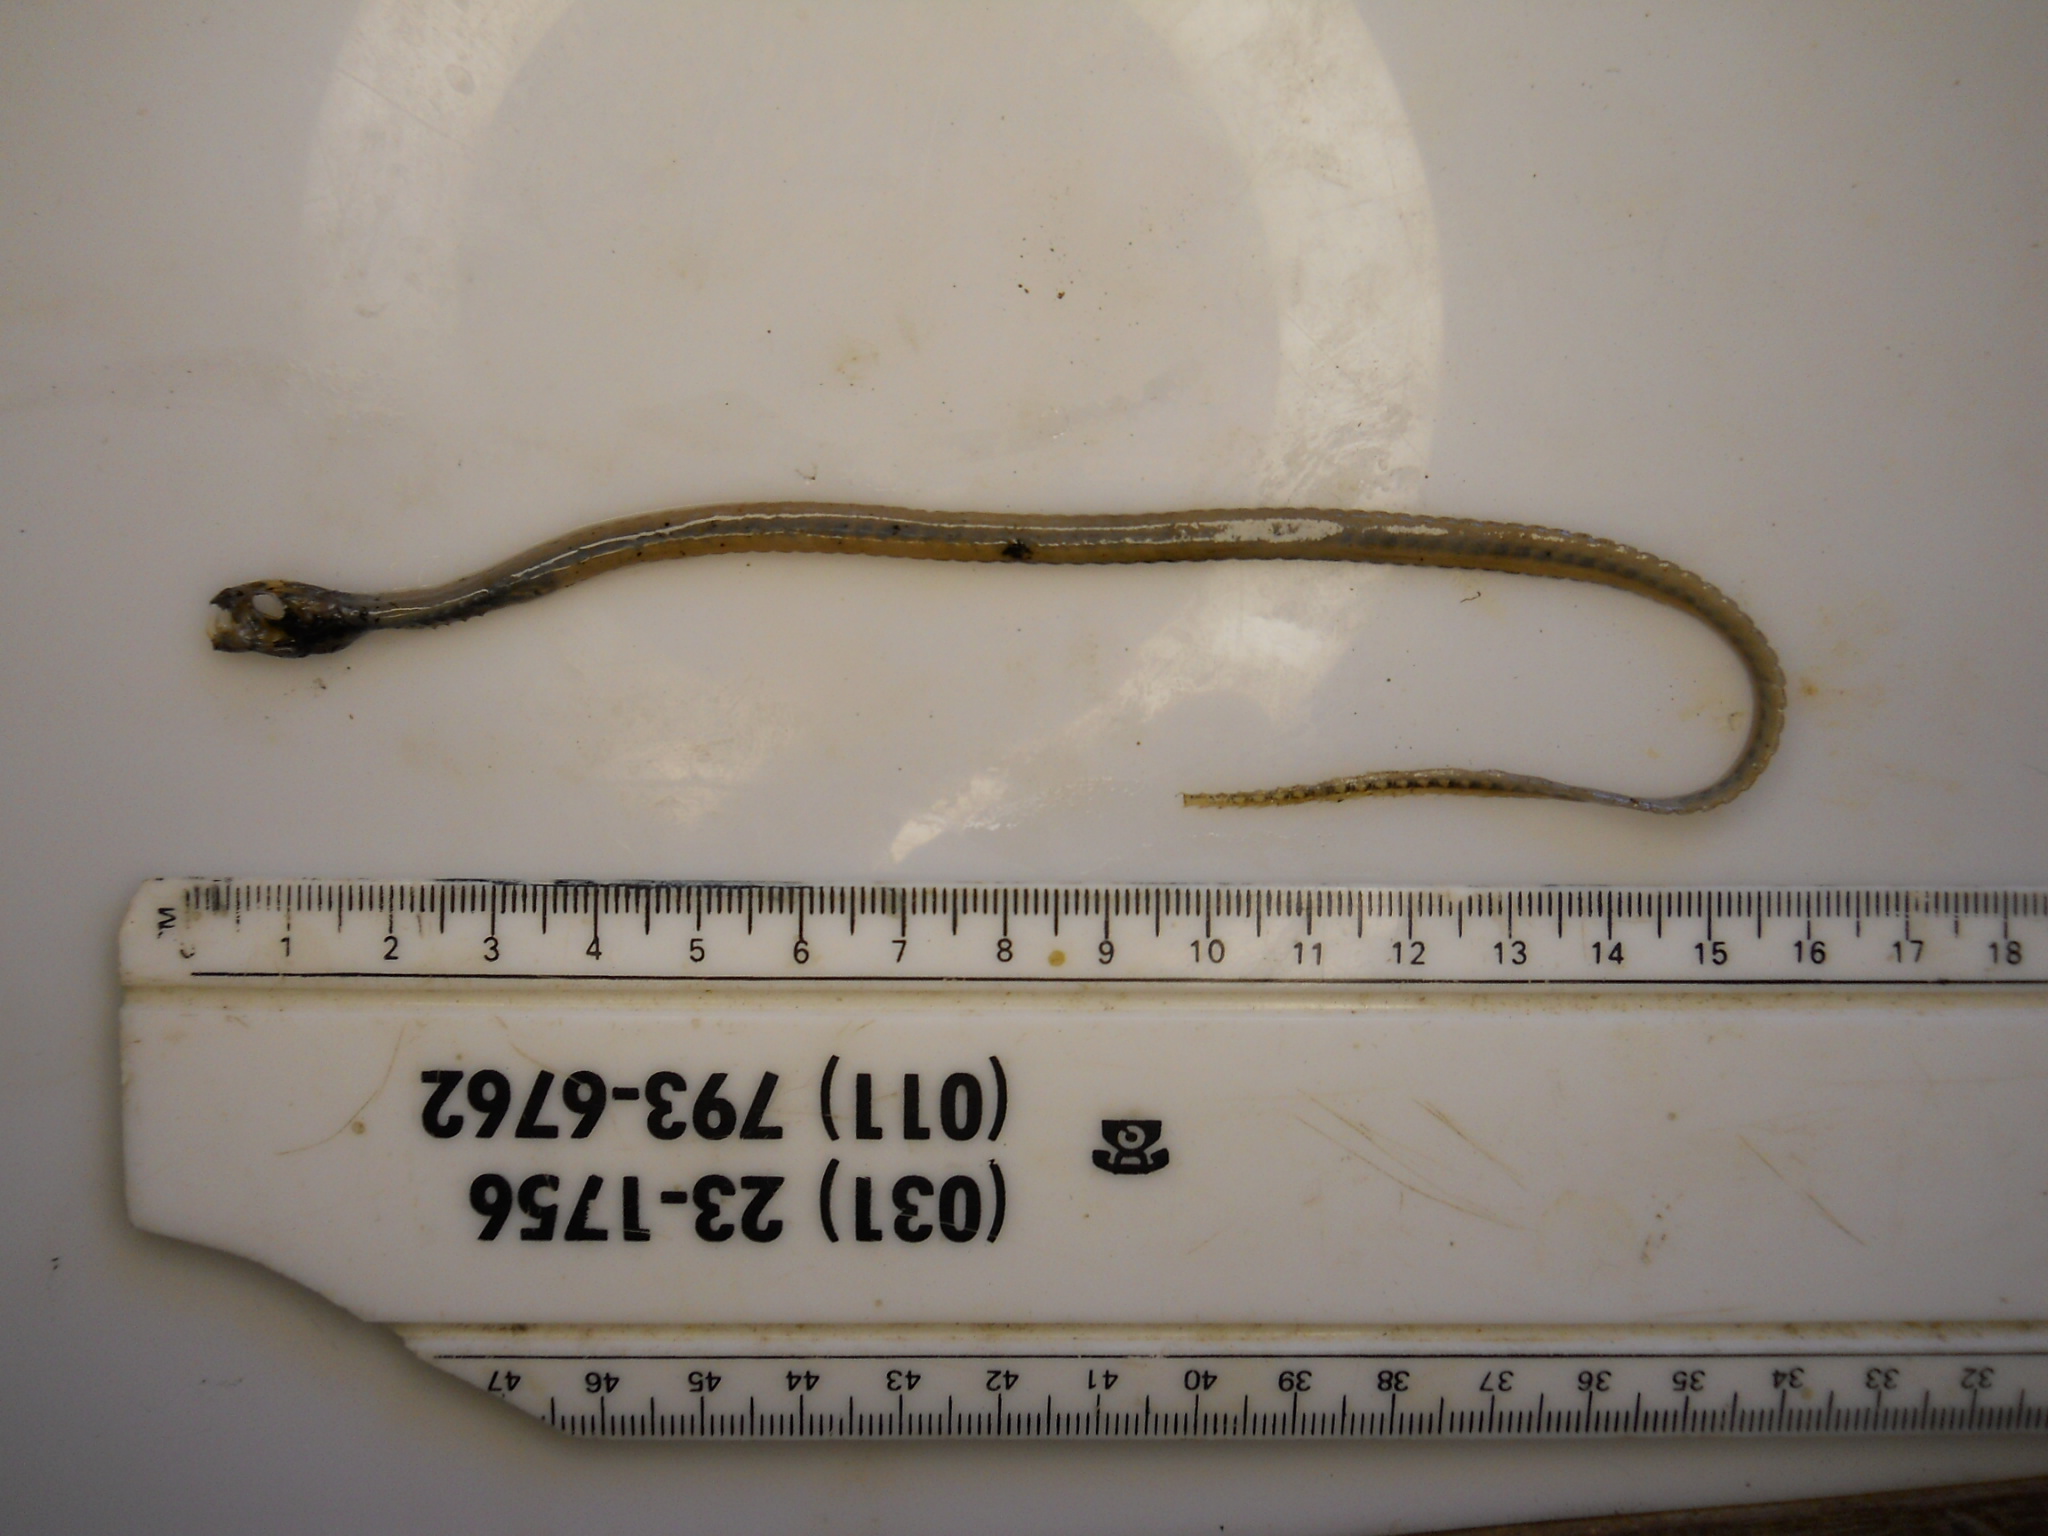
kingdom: Animalia
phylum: Chordata
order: Perciformes
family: Blenniidae
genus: Xiphasia
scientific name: Xiphasia matsubarai
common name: Japanese snake blenny
